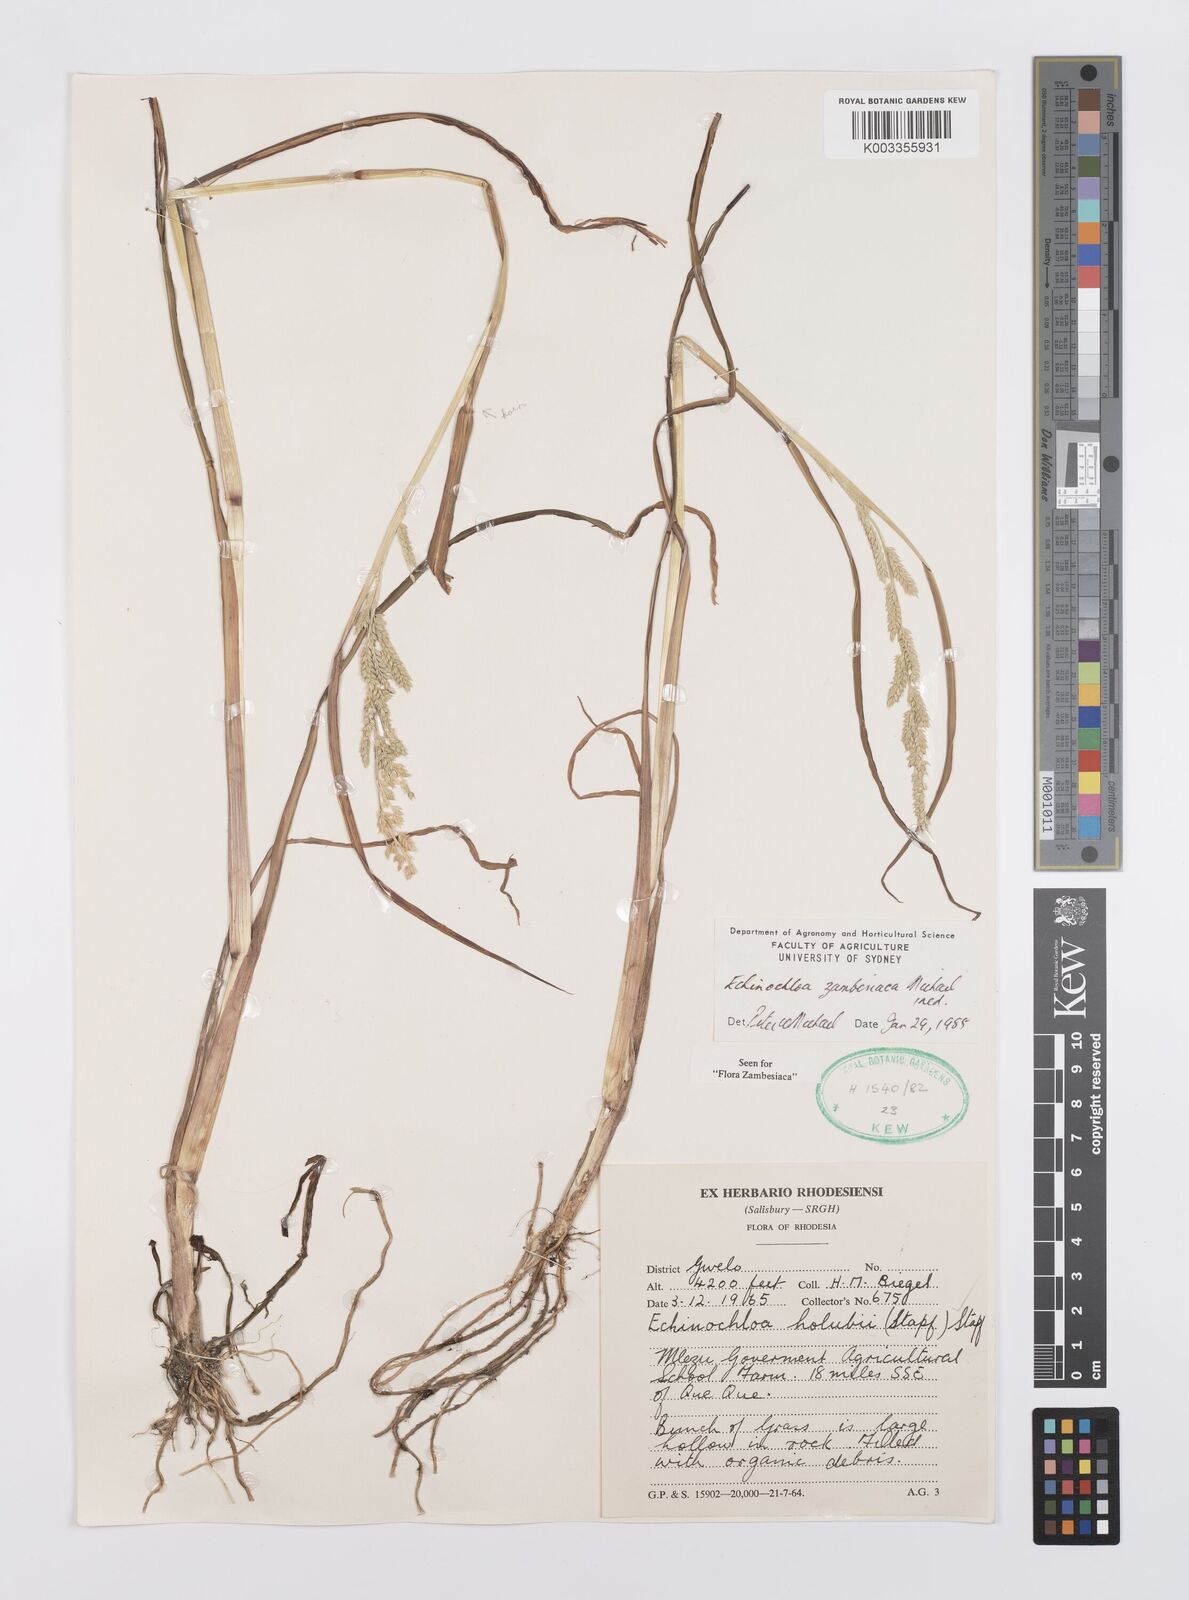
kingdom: Plantae
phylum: Tracheophyta
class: Liliopsida
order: Poales
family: Poaceae
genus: Echinochloa
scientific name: Echinochloa ugandensis
